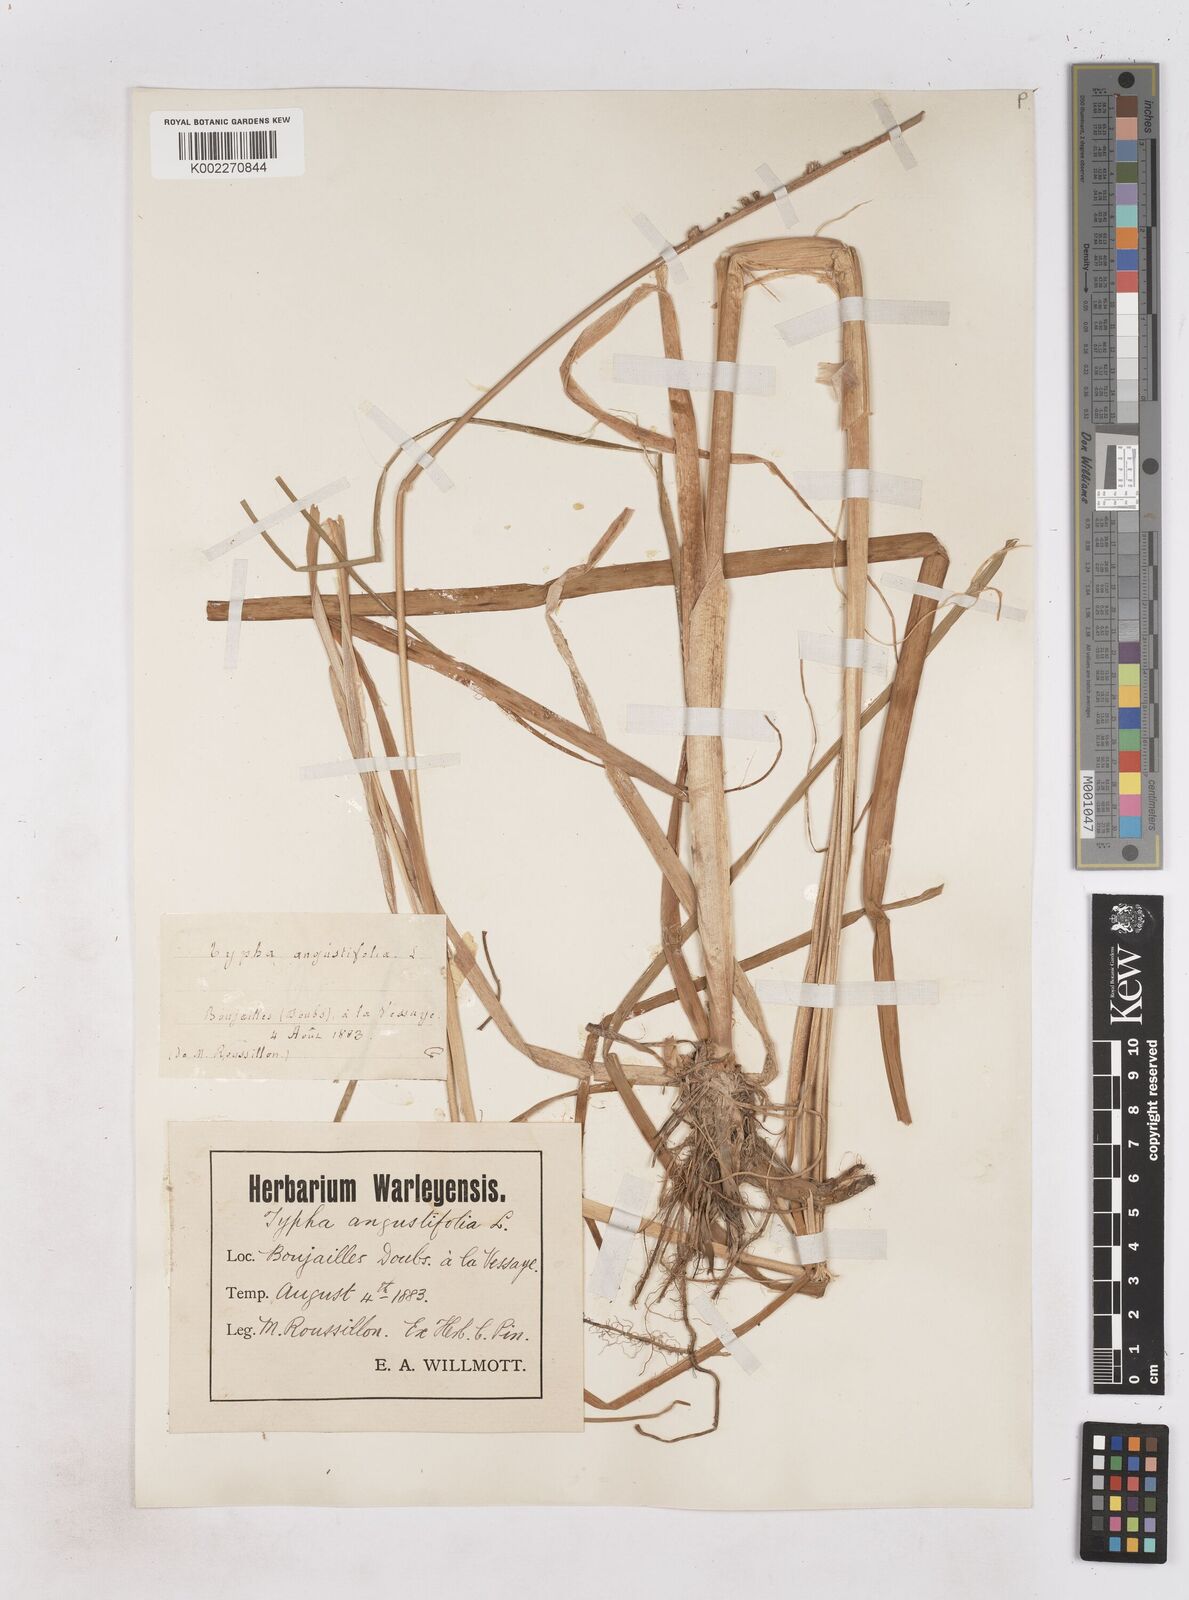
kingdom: Plantae
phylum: Tracheophyta
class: Liliopsida
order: Poales
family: Typhaceae
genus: Typha
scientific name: Typha angustifolia
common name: Lesser bulrush
